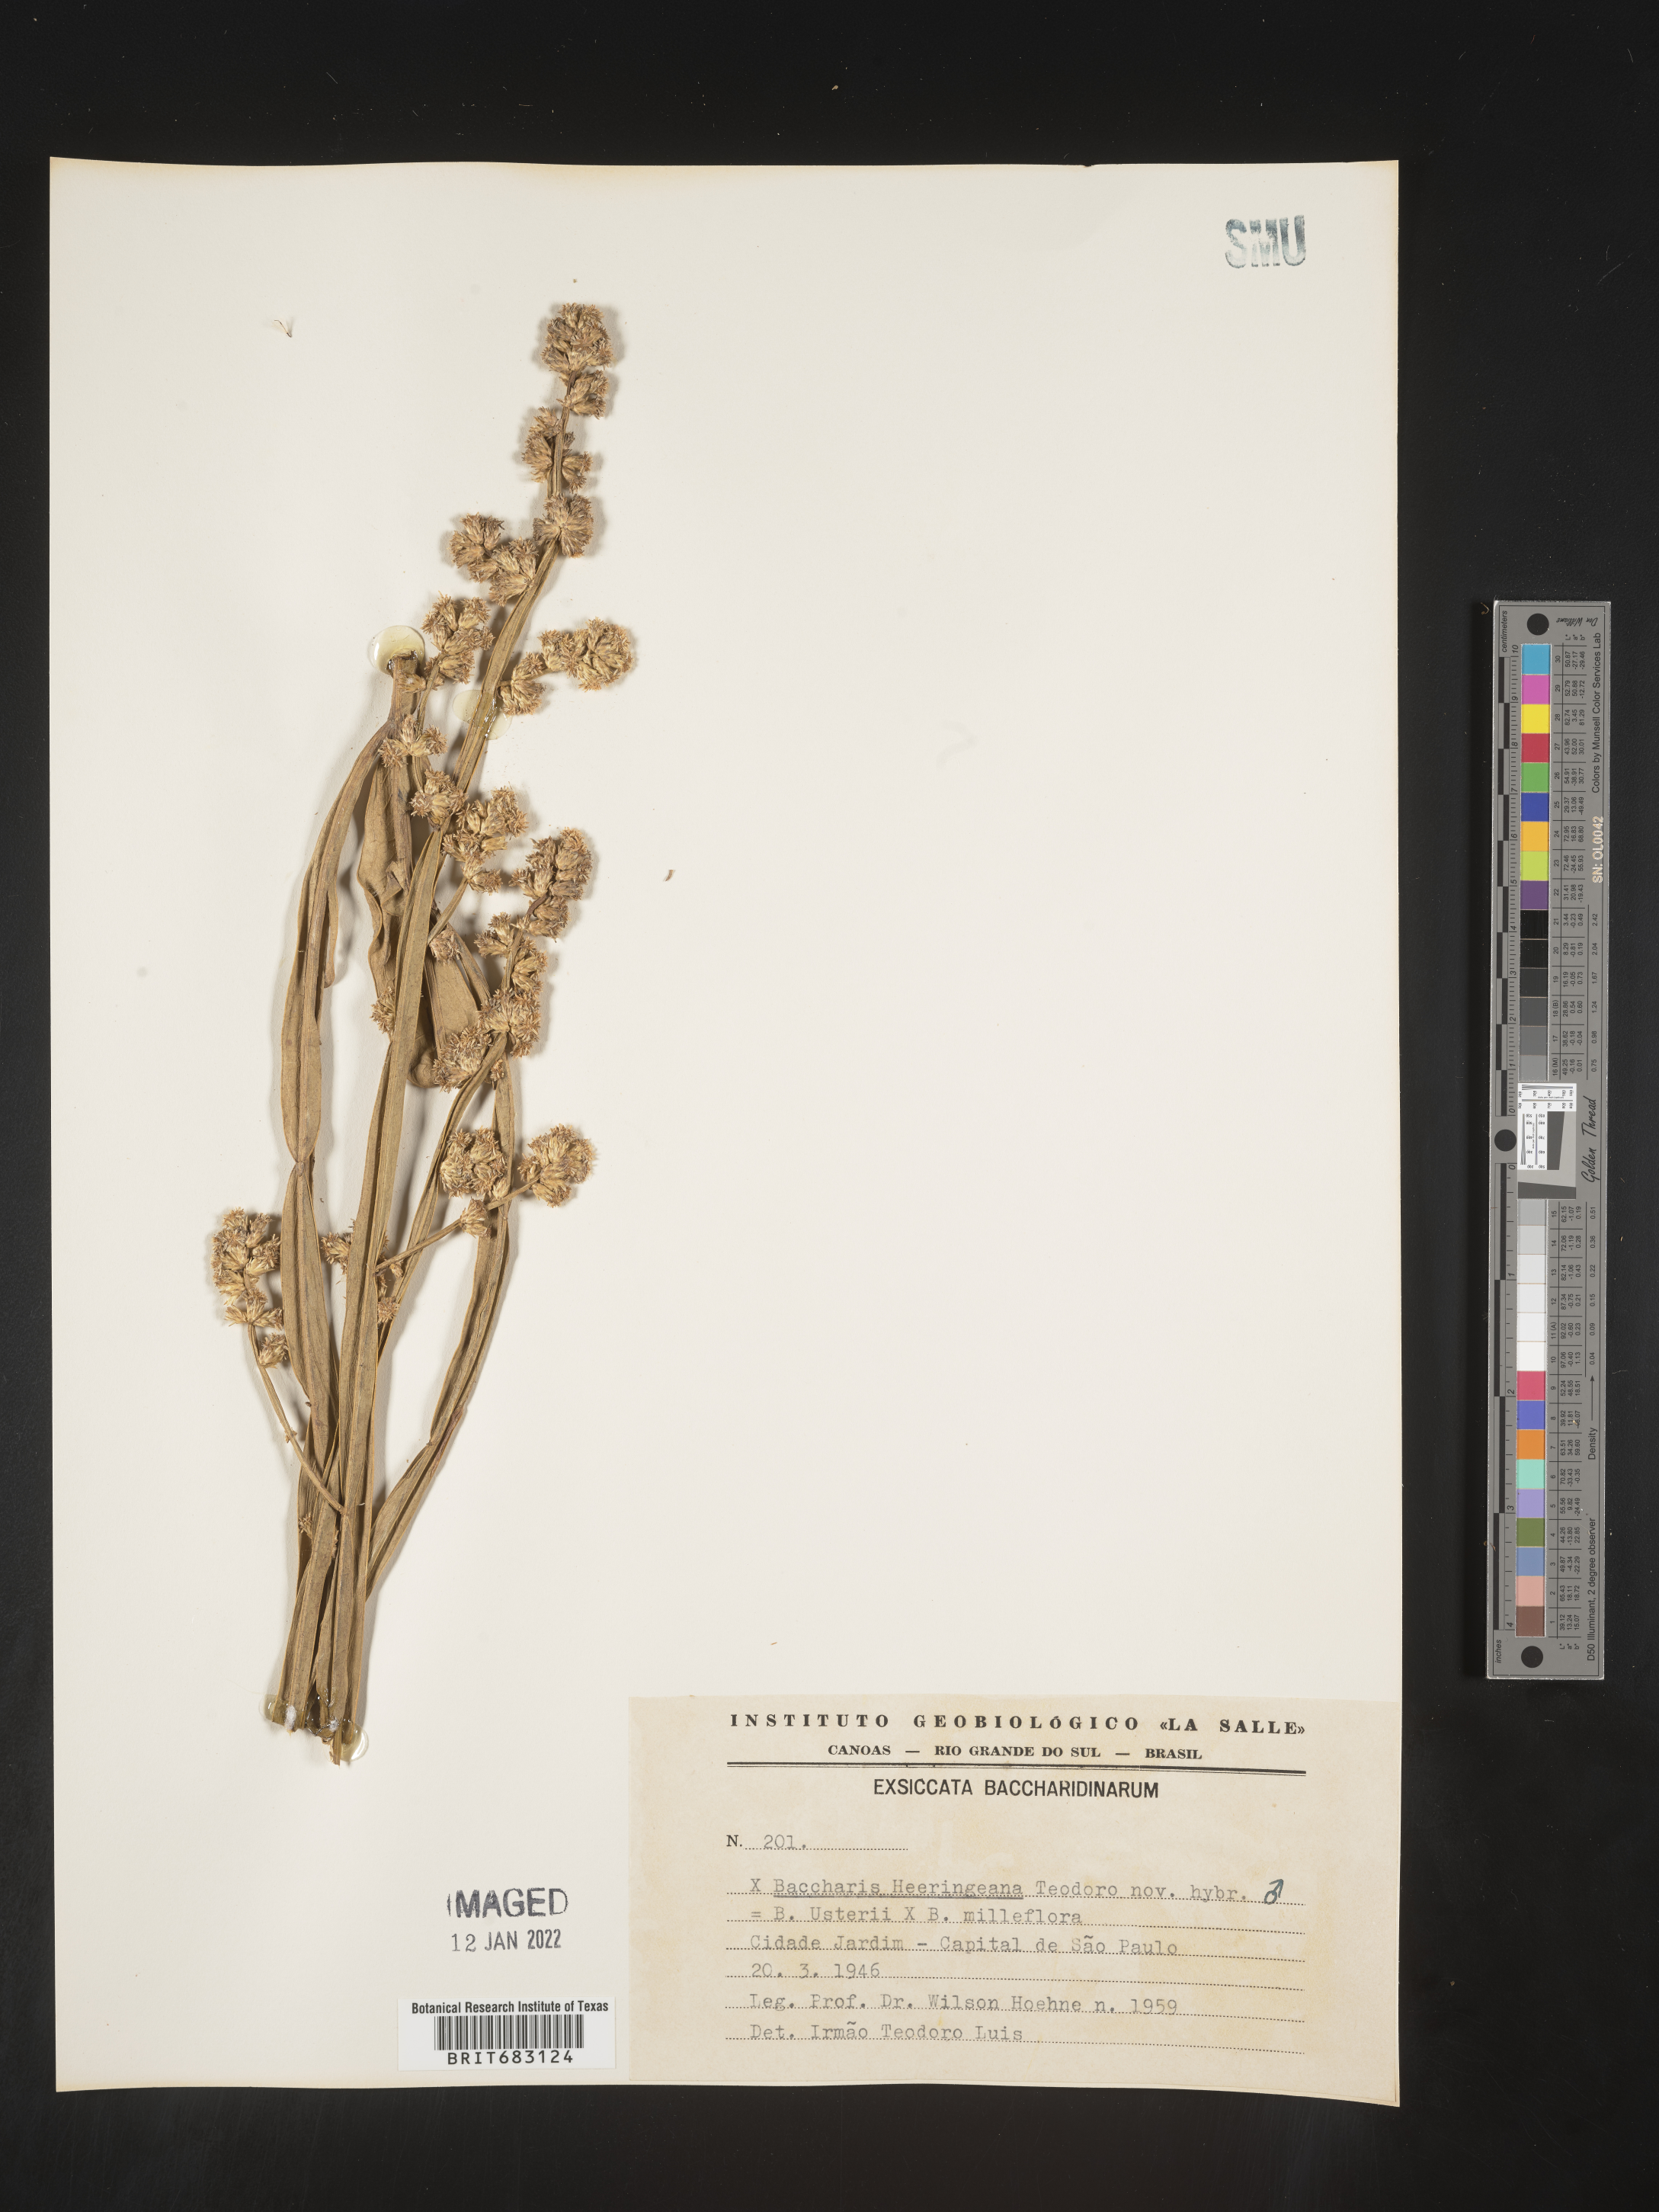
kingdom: Plantae
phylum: Tracheophyta
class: Magnoliopsida
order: Asterales
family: Asteraceae
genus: Baccharis
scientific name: Baccharis
